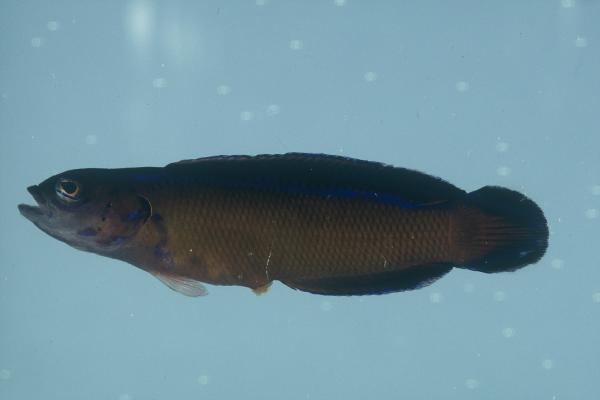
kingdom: Animalia
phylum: Chordata
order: Perciformes
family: Pseudochromidae
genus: Pseudochromis
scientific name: Pseudochromis dutoiti
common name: Dutoiti
